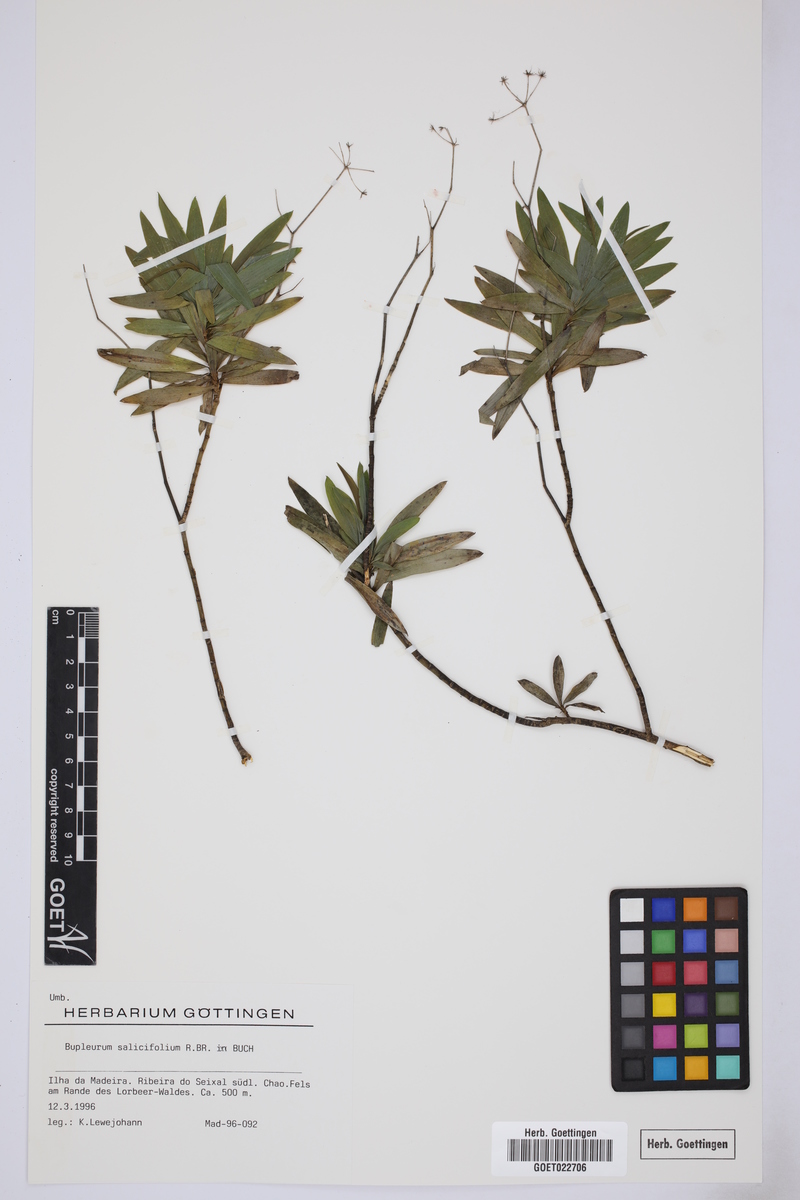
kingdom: Plantae
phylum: Tracheophyta
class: Magnoliopsida
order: Apiales
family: Apiaceae
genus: Bupleurum
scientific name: Bupleurum salicifolium
